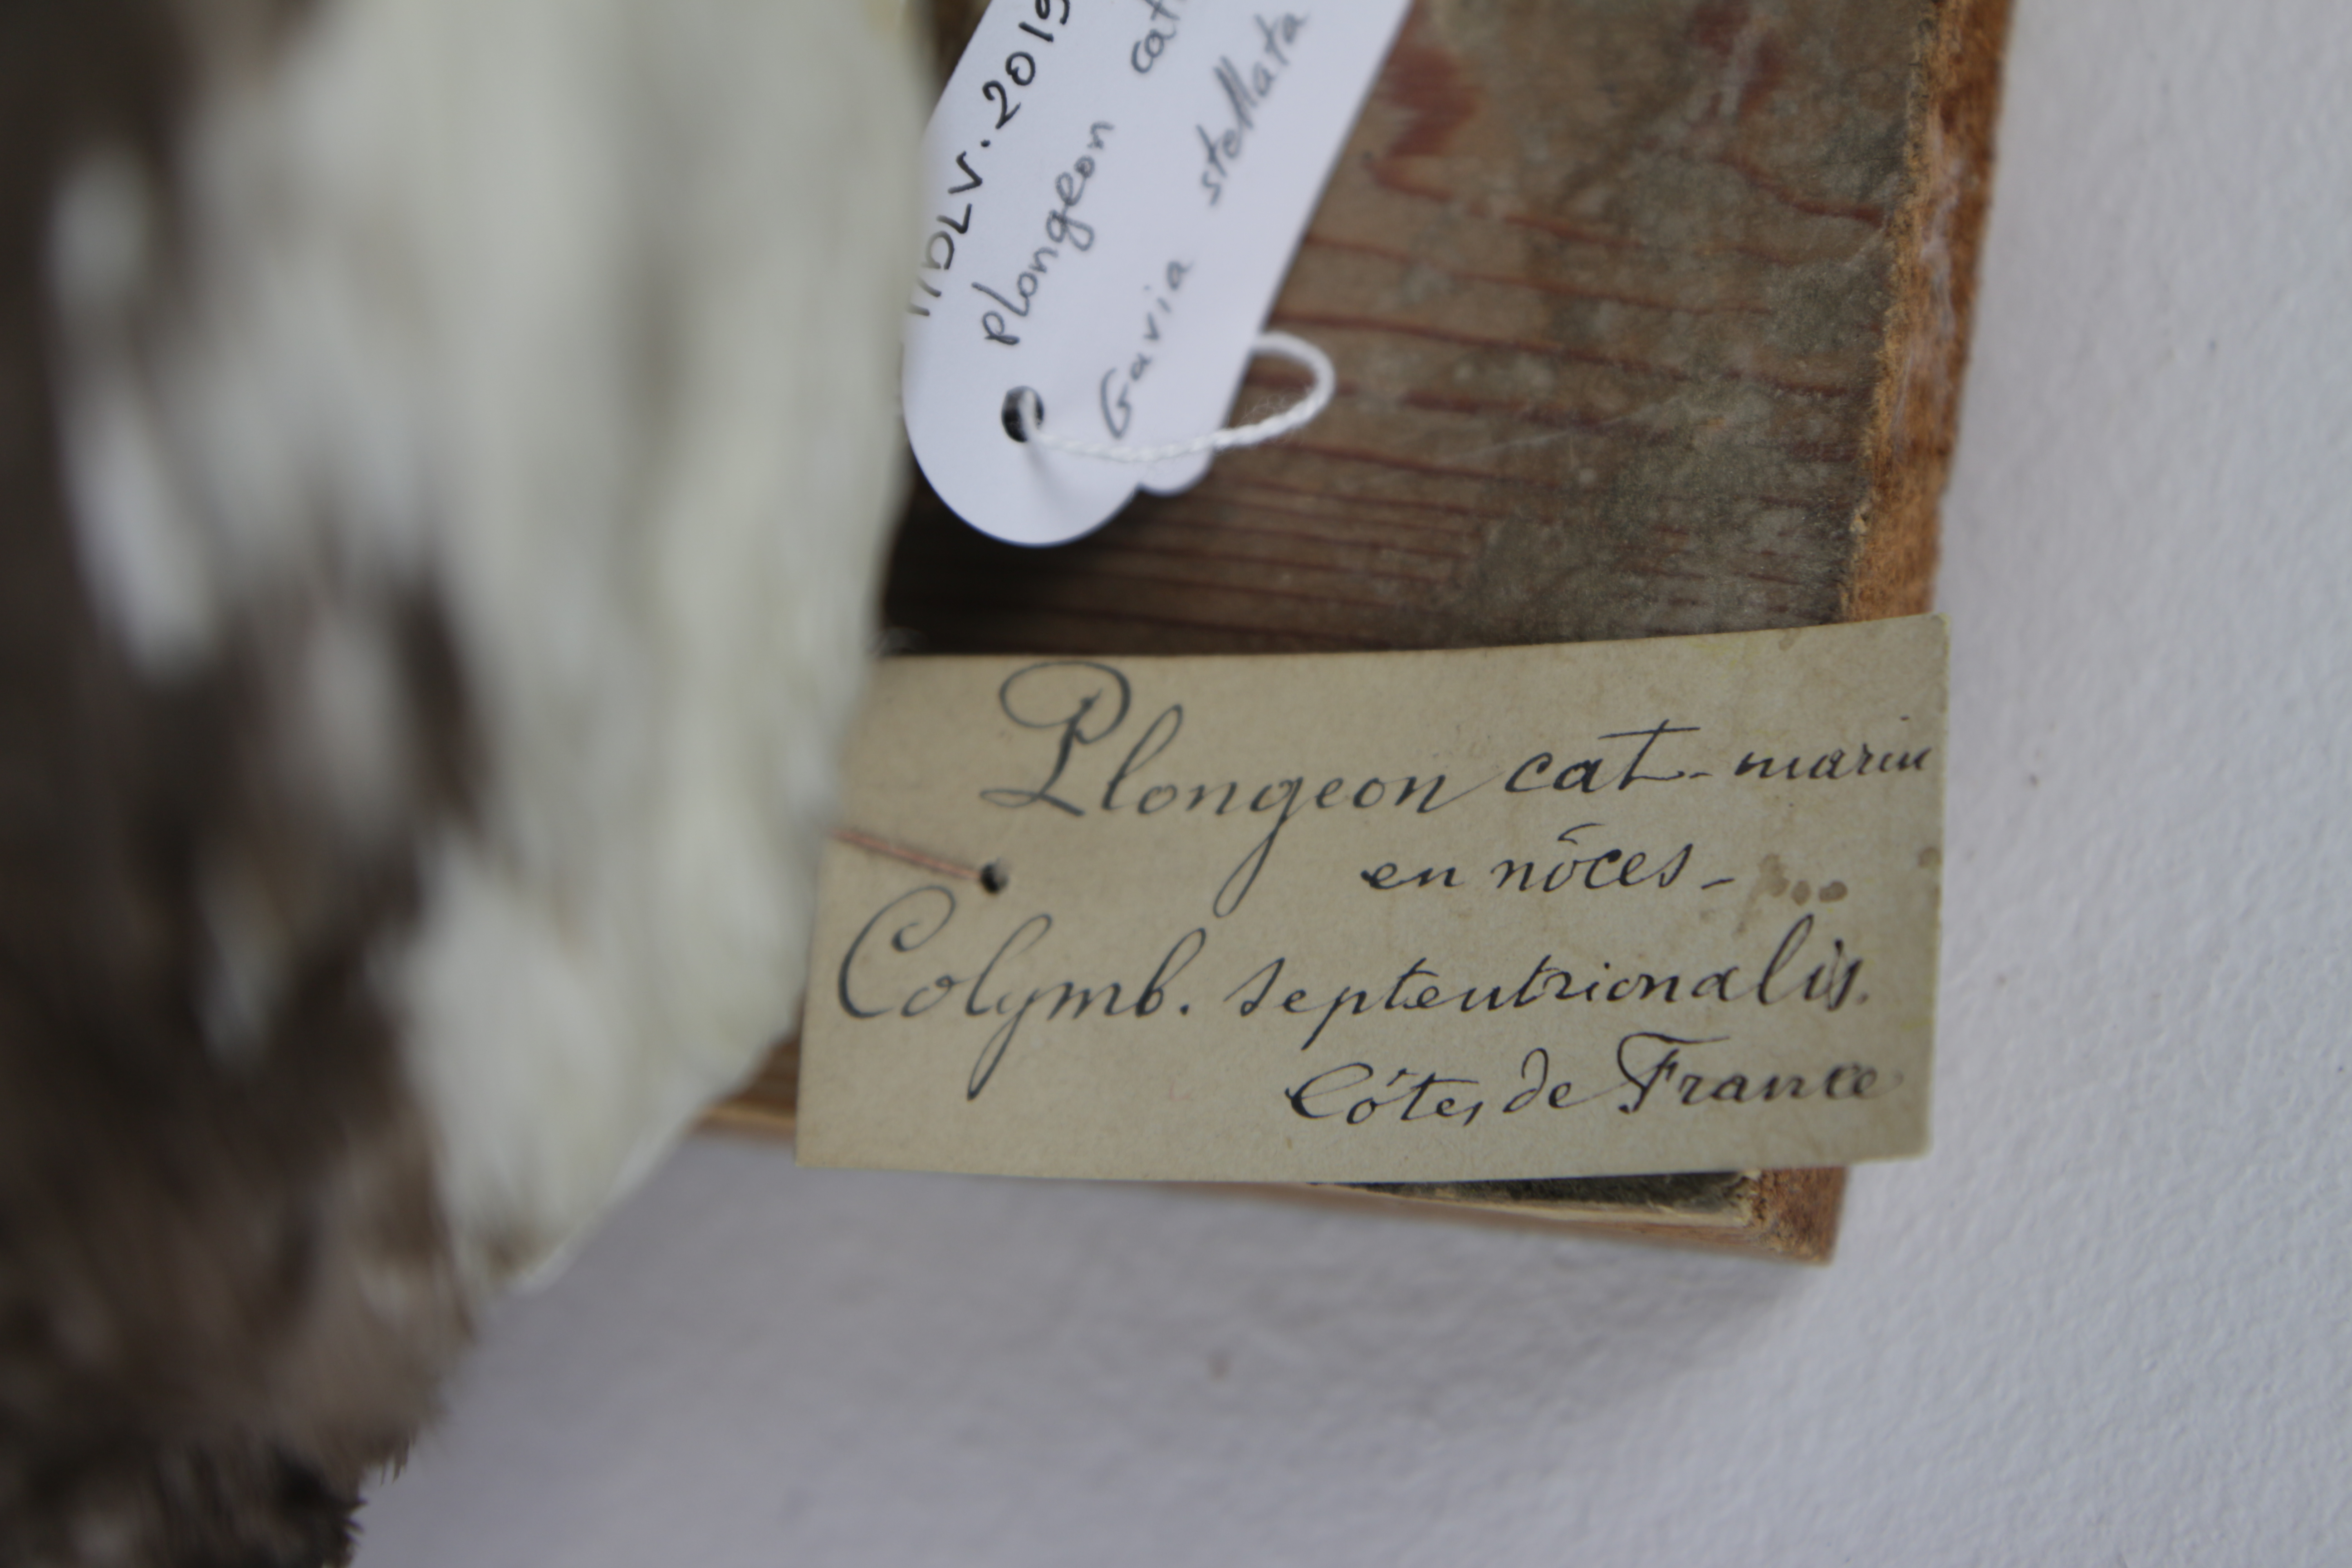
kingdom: Animalia
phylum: Chordata
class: Aves
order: Gaviiformes
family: Gaviidae
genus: Gavia
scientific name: Gavia stellata
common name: Red-throated loon
